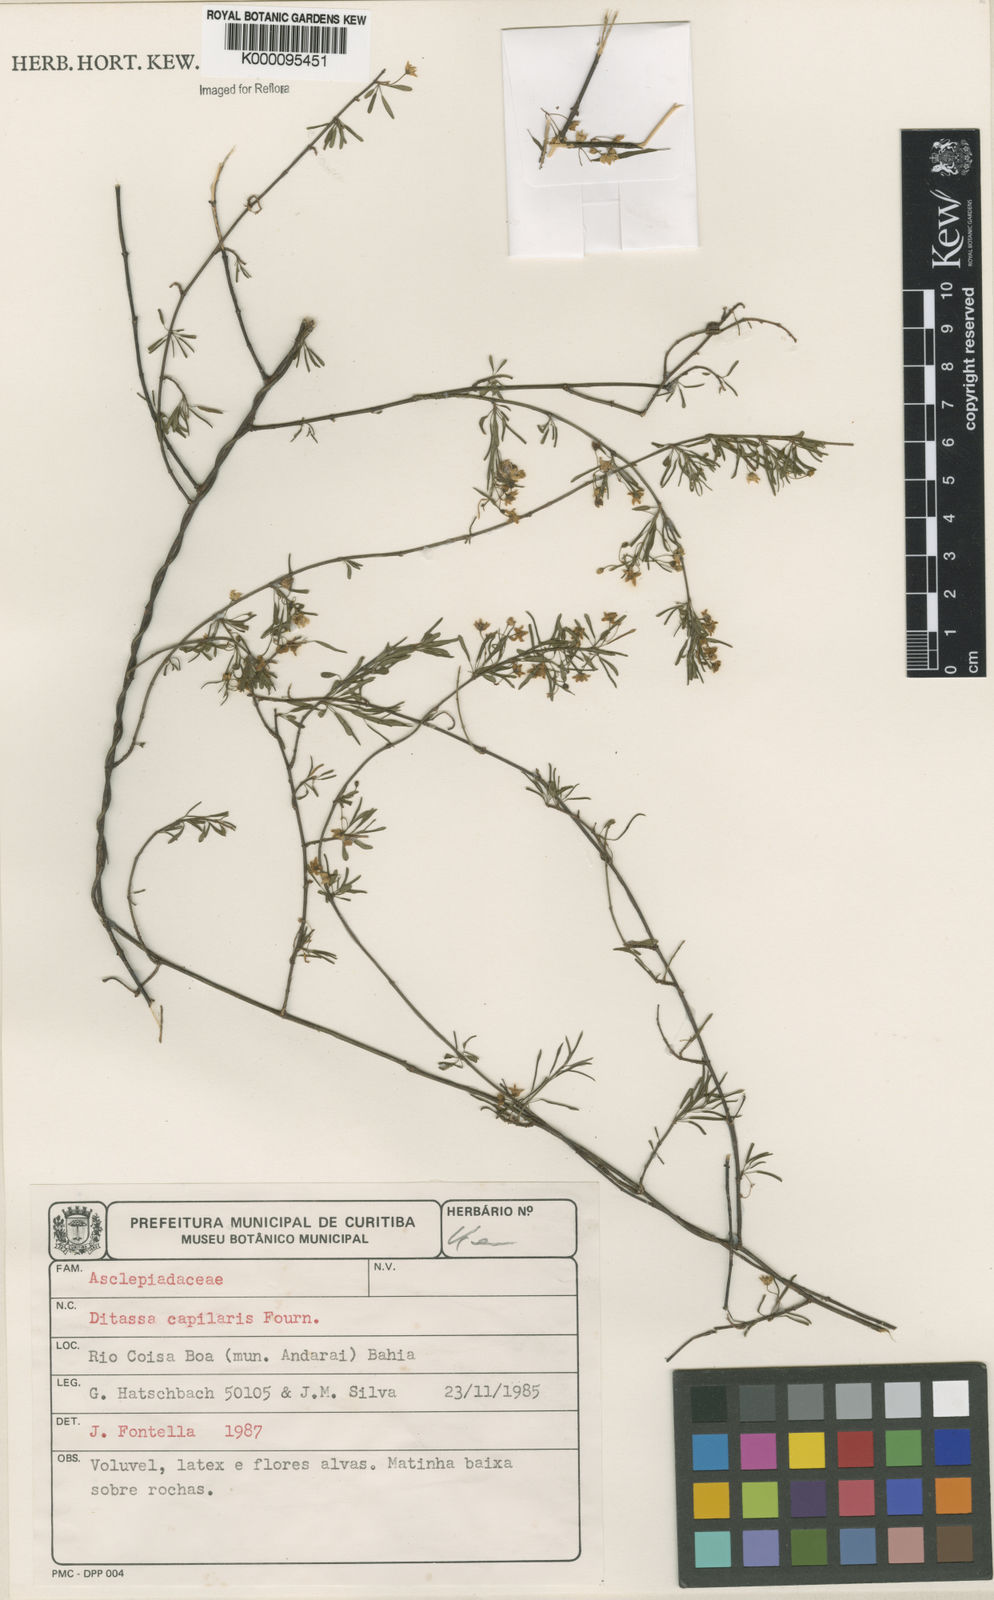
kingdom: Plantae
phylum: Tracheophyta
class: Magnoliopsida
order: Gentianales
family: Apocynaceae
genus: Ditassa
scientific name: Ditassa capillaris
